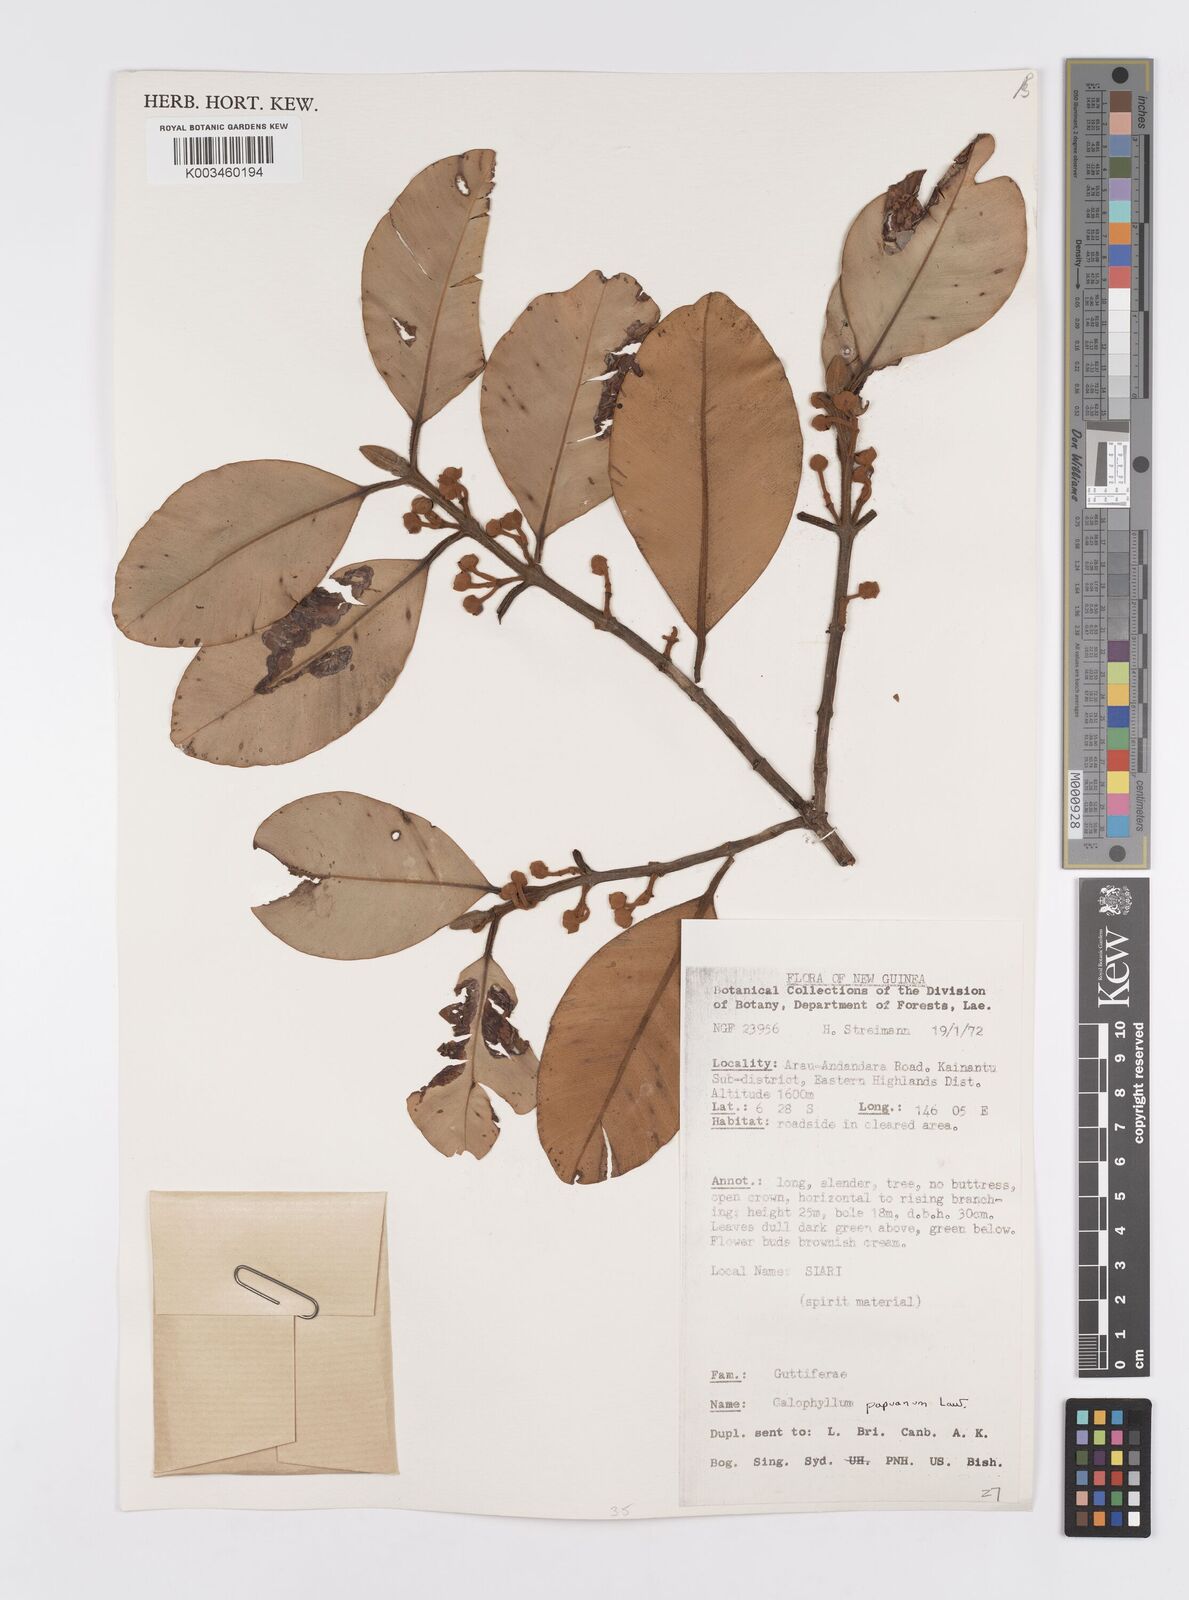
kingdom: Plantae
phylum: Tracheophyta
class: Magnoliopsida
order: Malpighiales
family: Calophyllaceae
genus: Calophyllum
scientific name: Calophyllum papuanum
